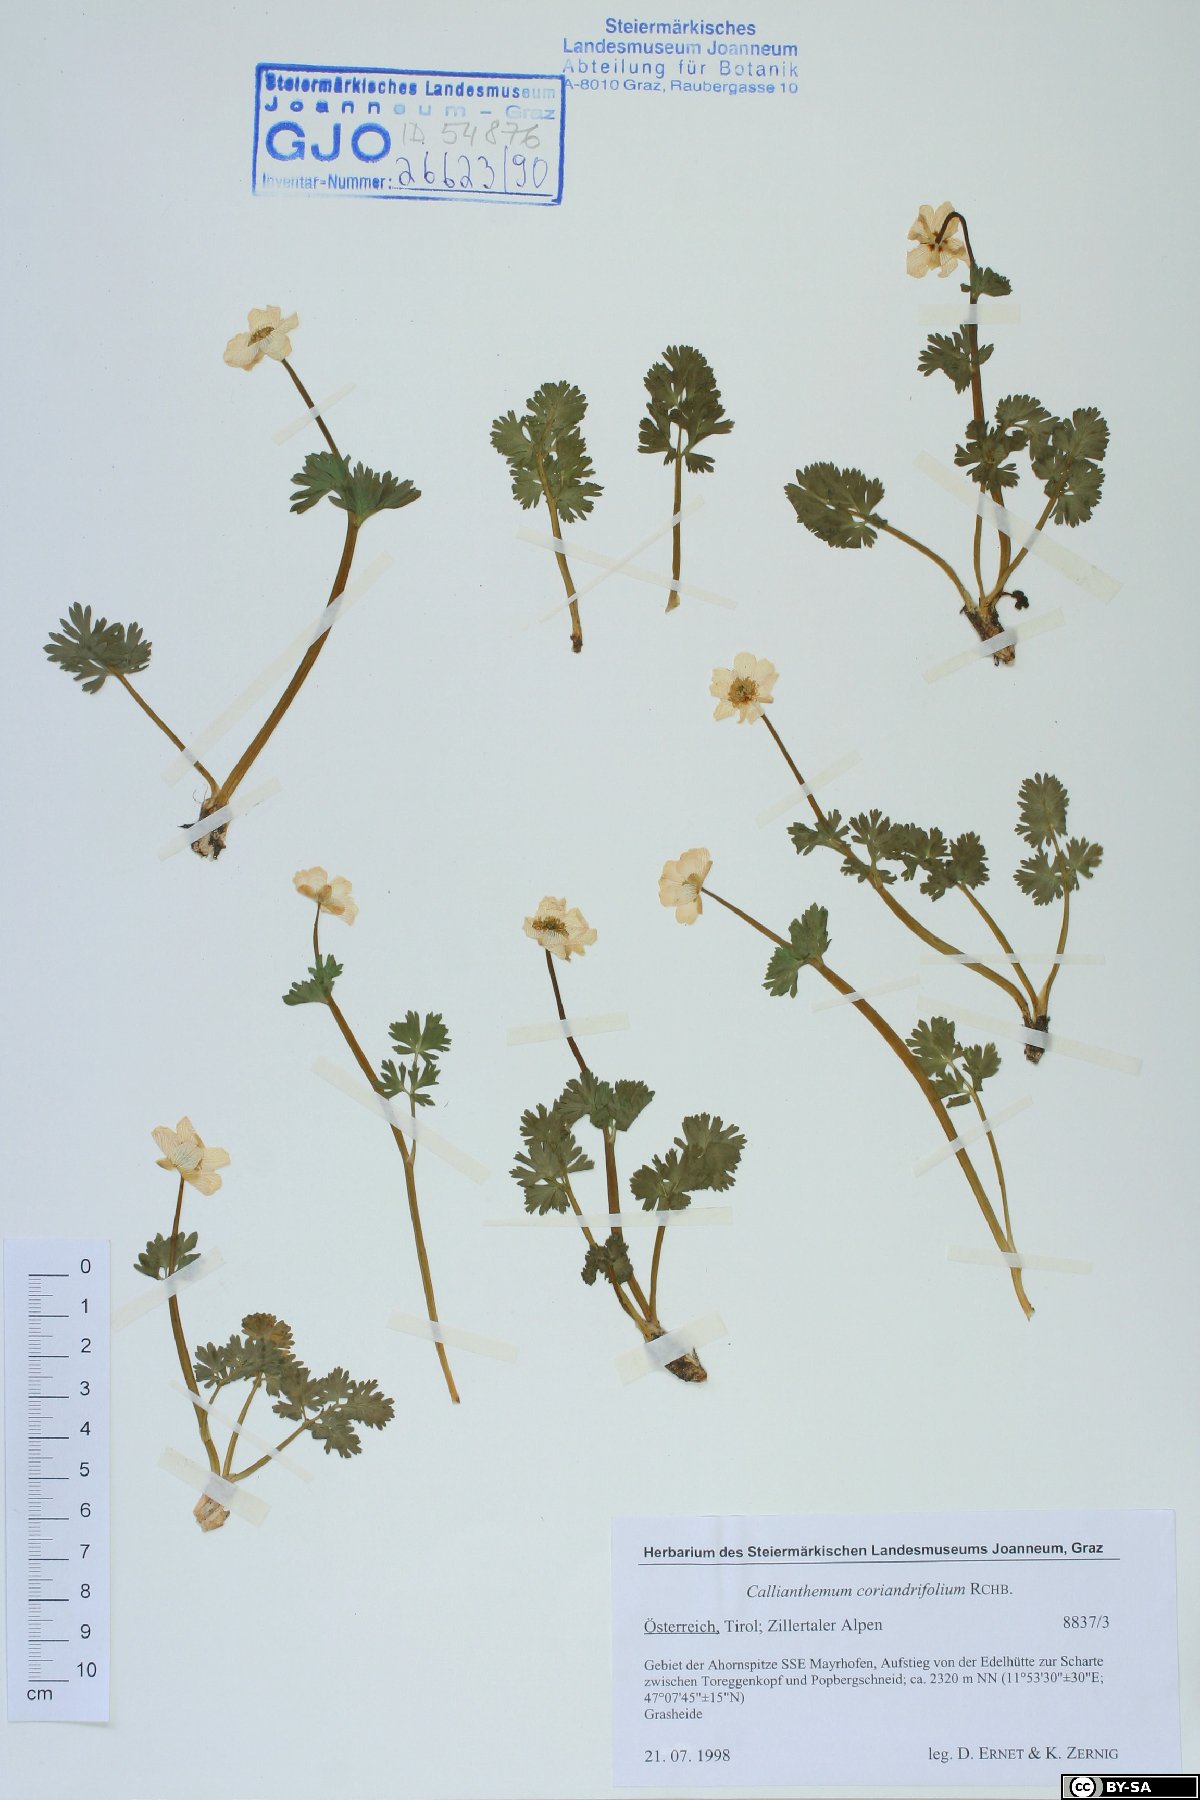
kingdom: Plantae
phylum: Tracheophyta
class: Magnoliopsida
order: Ranunculales
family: Ranunculaceae
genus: Callianthemum
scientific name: Callianthemum coriandrifolium
